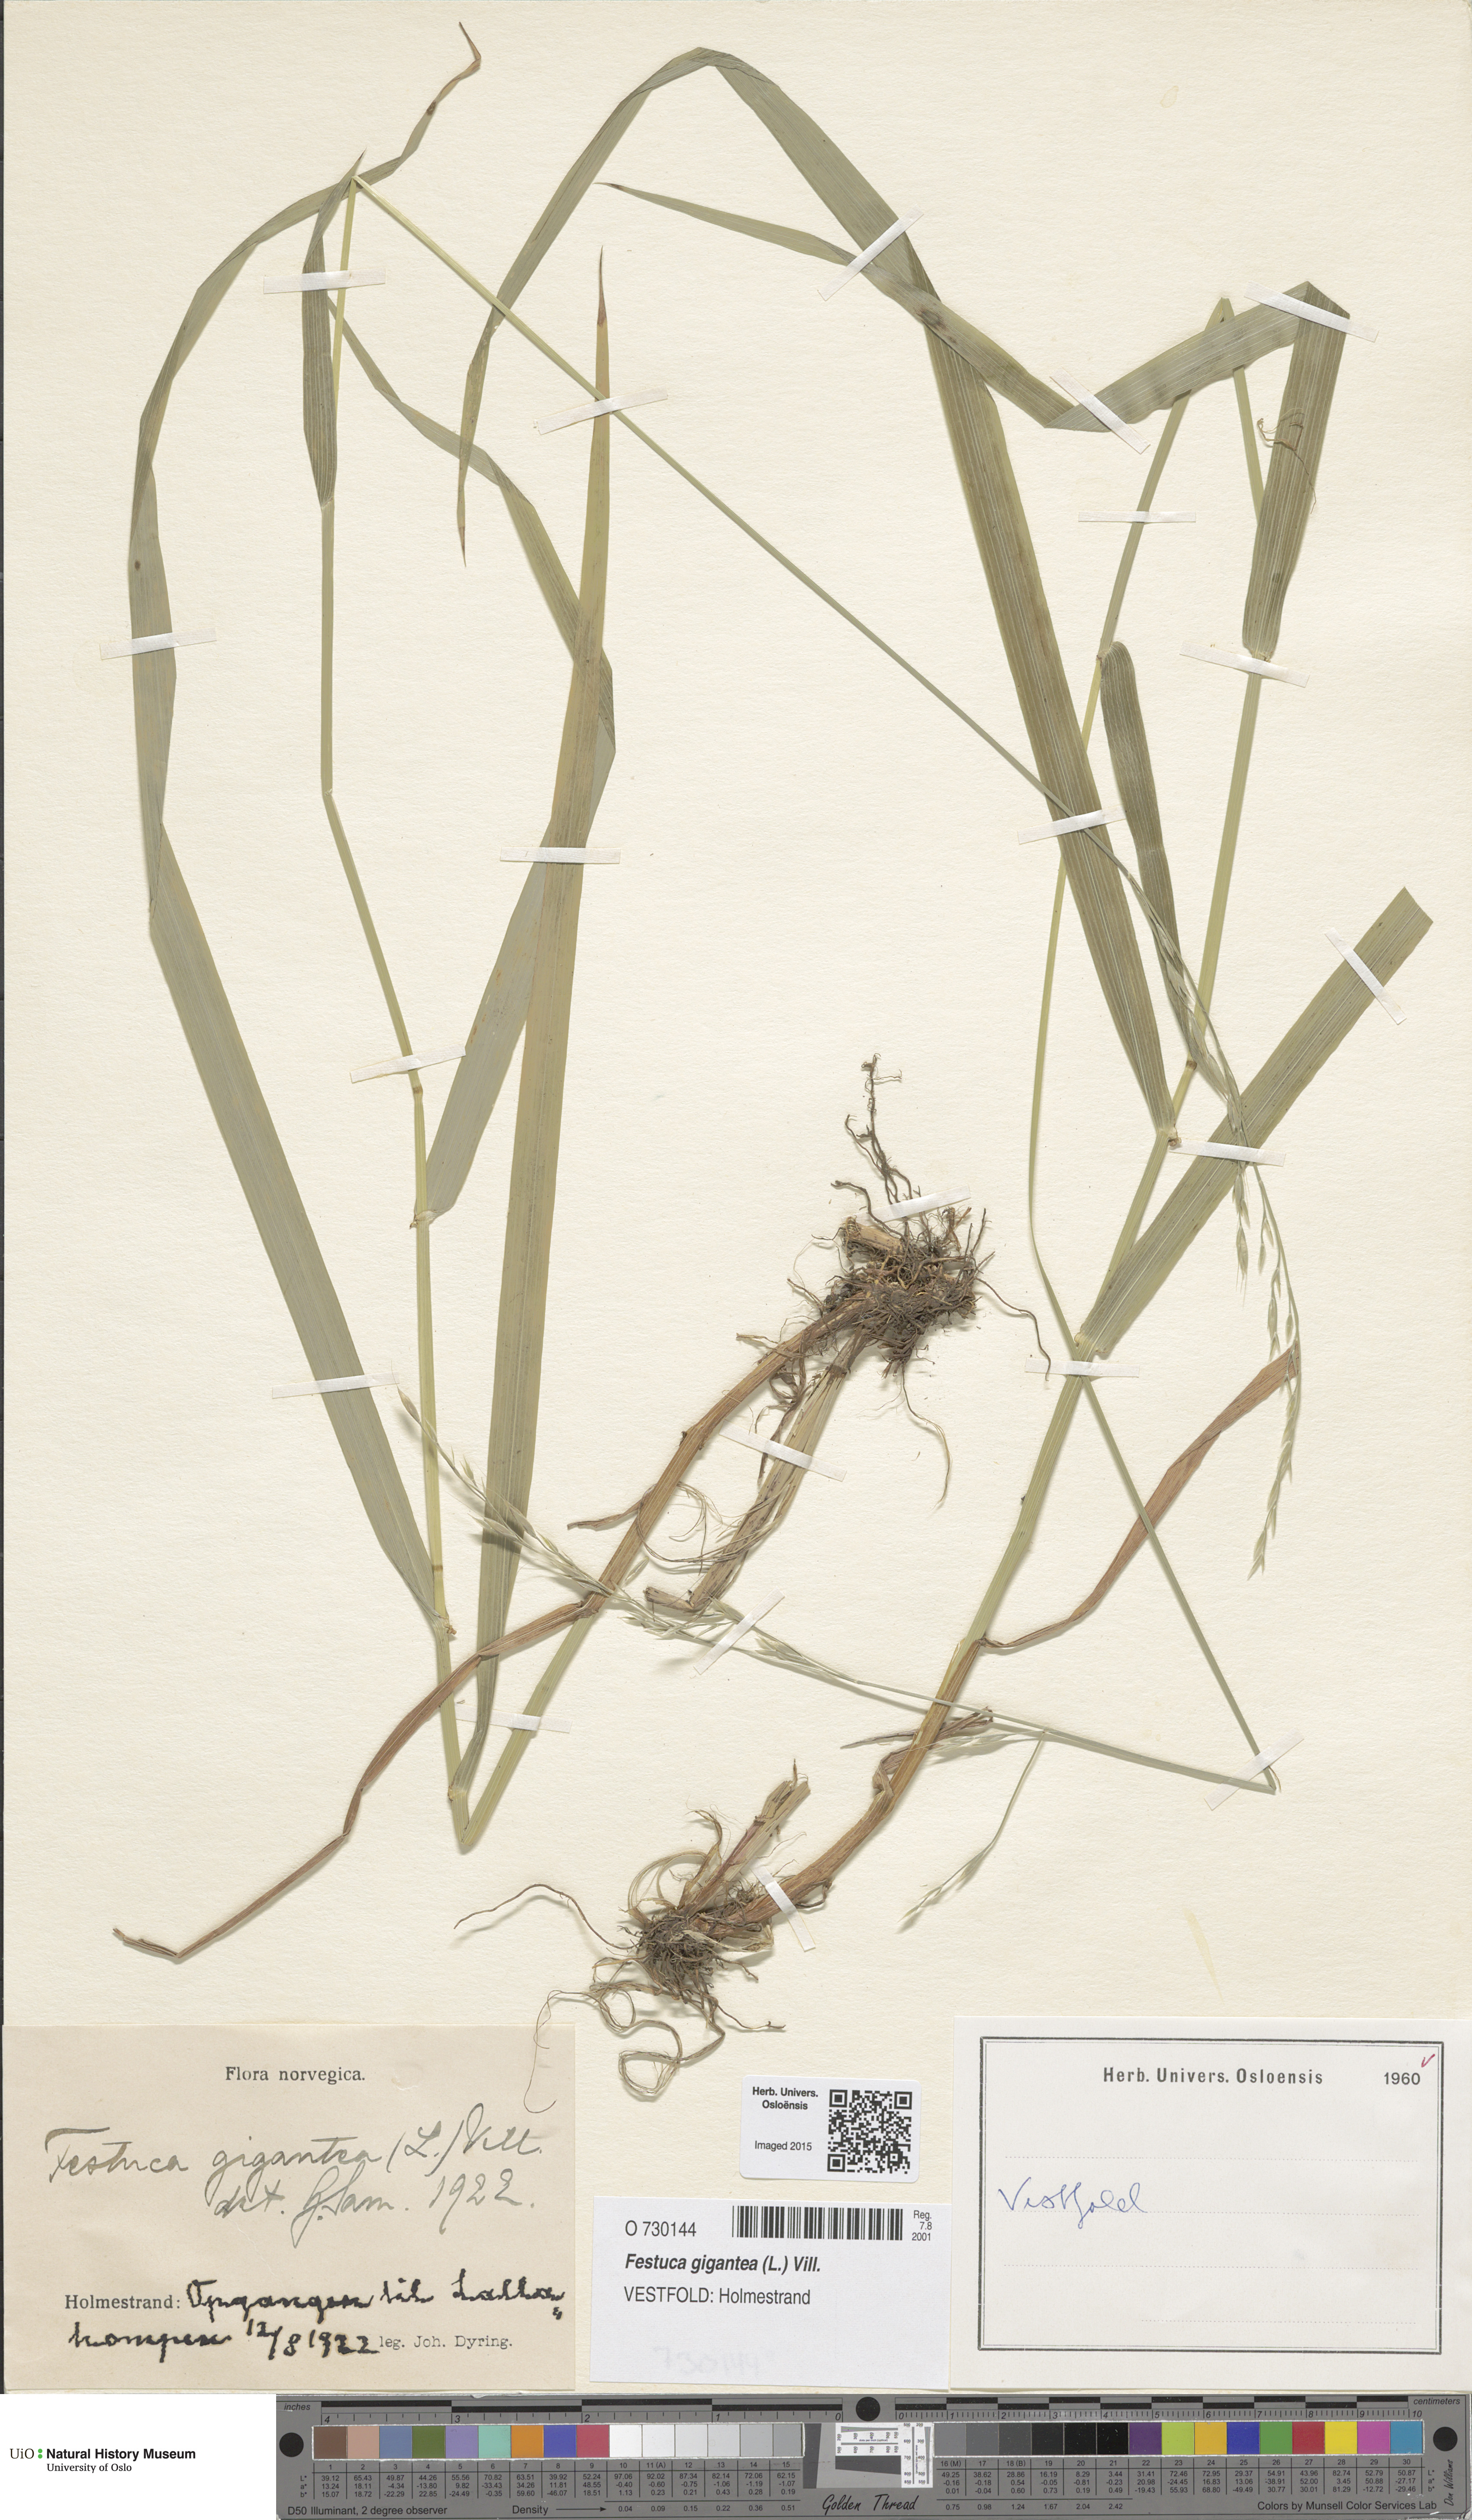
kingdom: Plantae
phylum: Tracheophyta
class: Liliopsida
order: Poales
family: Poaceae
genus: Lolium
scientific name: Lolium giganteum
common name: Giant fescue
